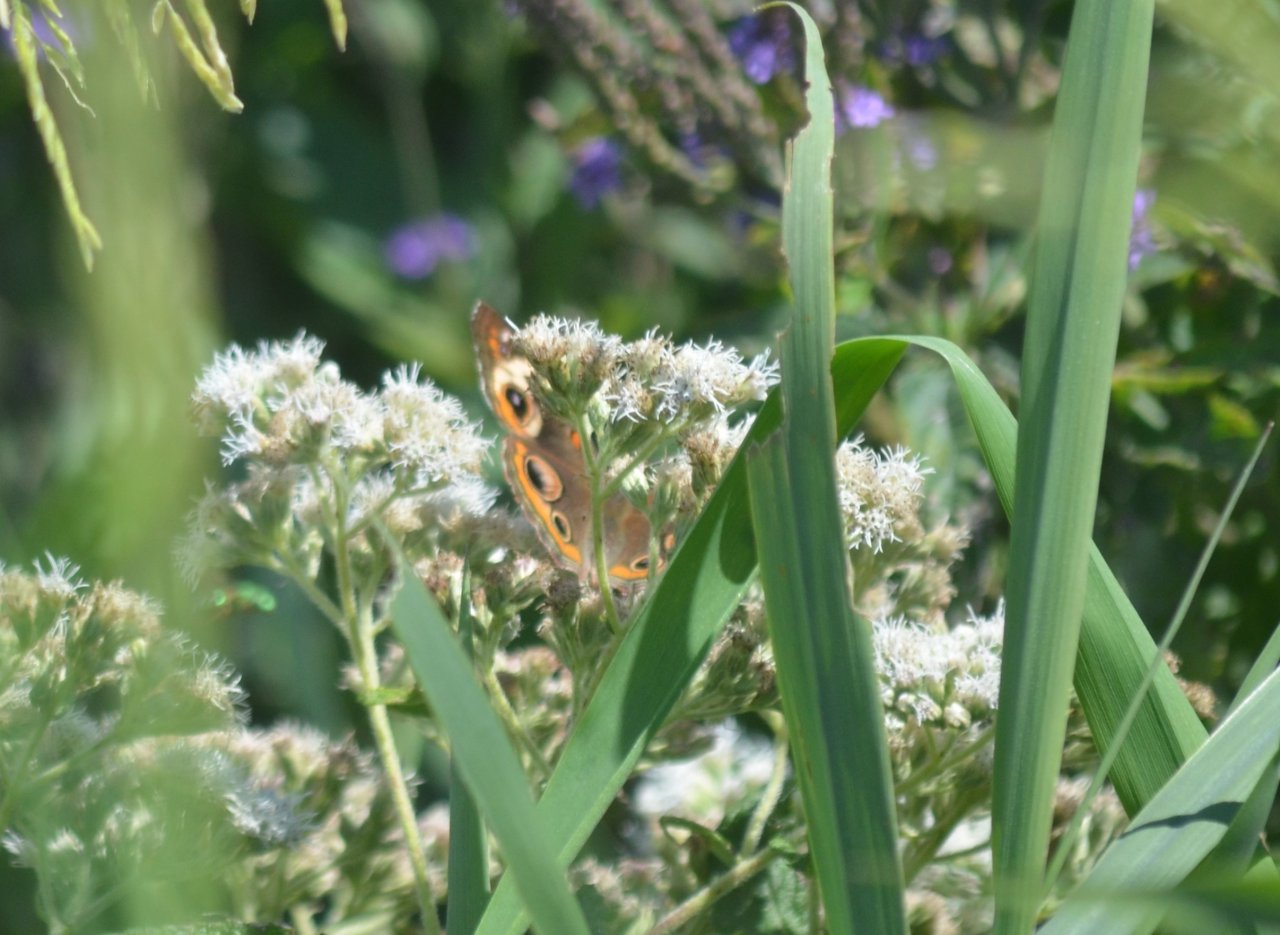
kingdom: Animalia
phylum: Arthropoda
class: Insecta
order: Lepidoptera
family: Nymphalidae
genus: Junonia
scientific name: Junonia coenia
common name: Common Buckeye
